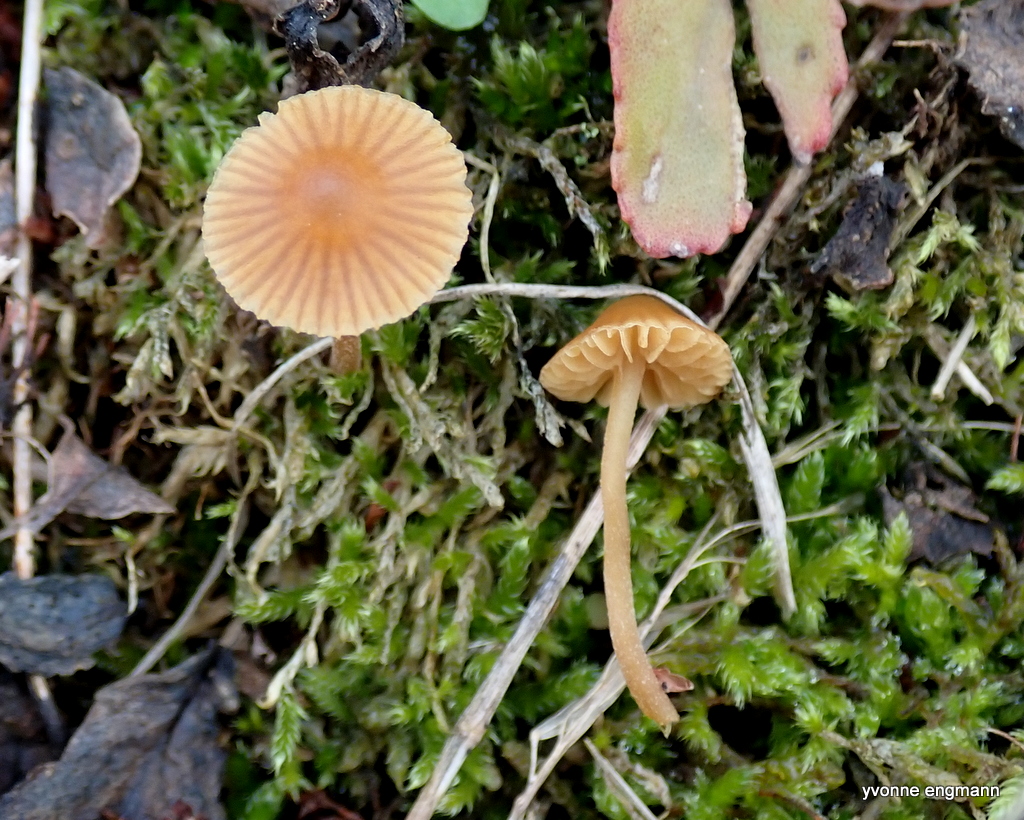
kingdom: Fungi
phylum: Basidiomycota
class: Agaricomycetes
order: Agaricales
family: Hymenogastraceae
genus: Galerina
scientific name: Galerina
